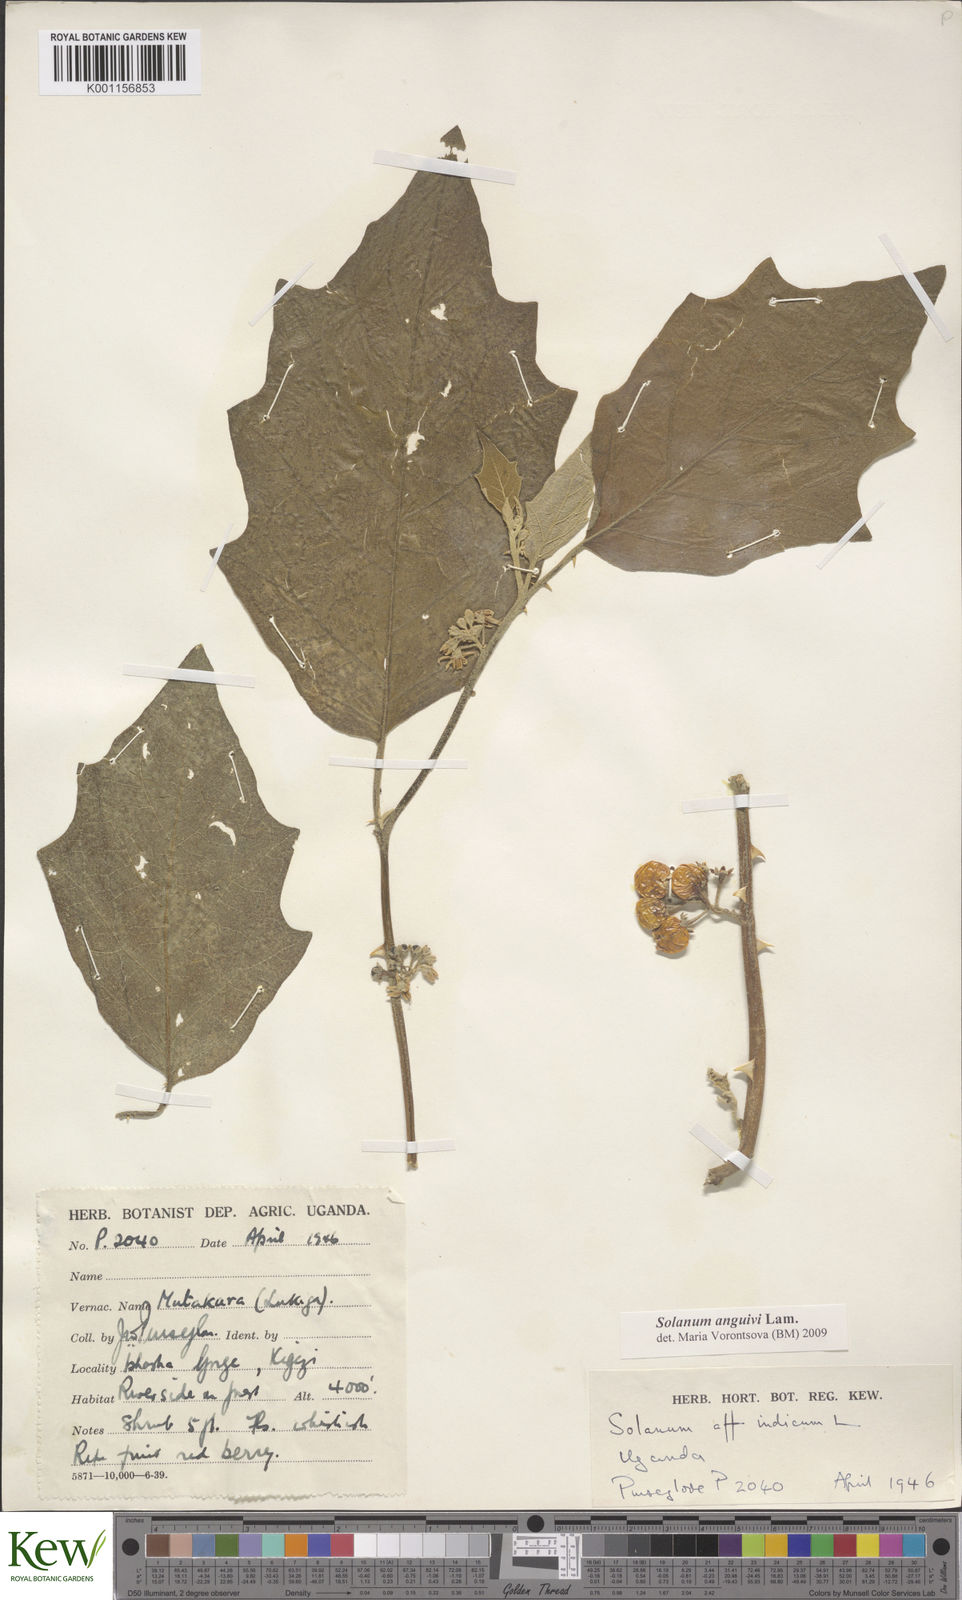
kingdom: Plantae
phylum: Tracheophyta
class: Magnoliopsida
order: Solanales
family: Solanaceae
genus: Solanum
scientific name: Solanum anguivi
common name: Forest bitterberry
